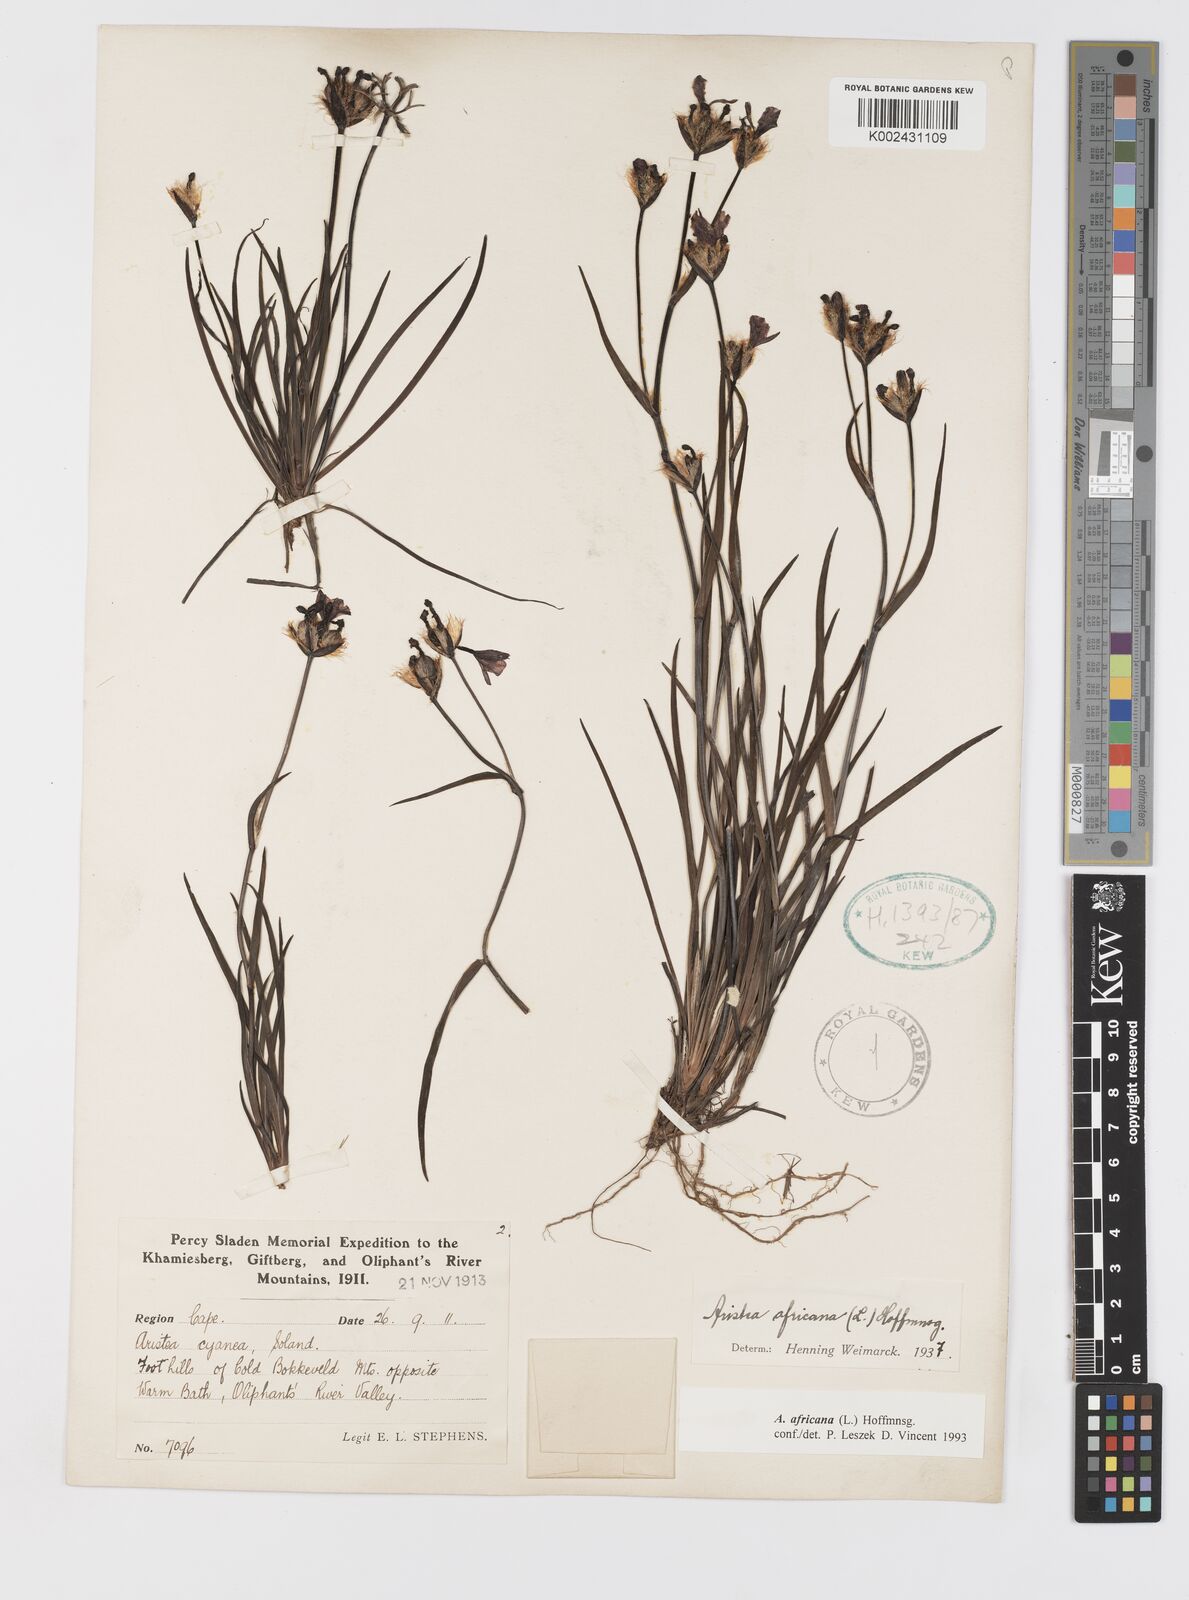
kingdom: Plantae
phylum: Tracheophyta
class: Liliopsida
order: Asparagales
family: Iridaceae
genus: Aristea
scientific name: Aristea africana
